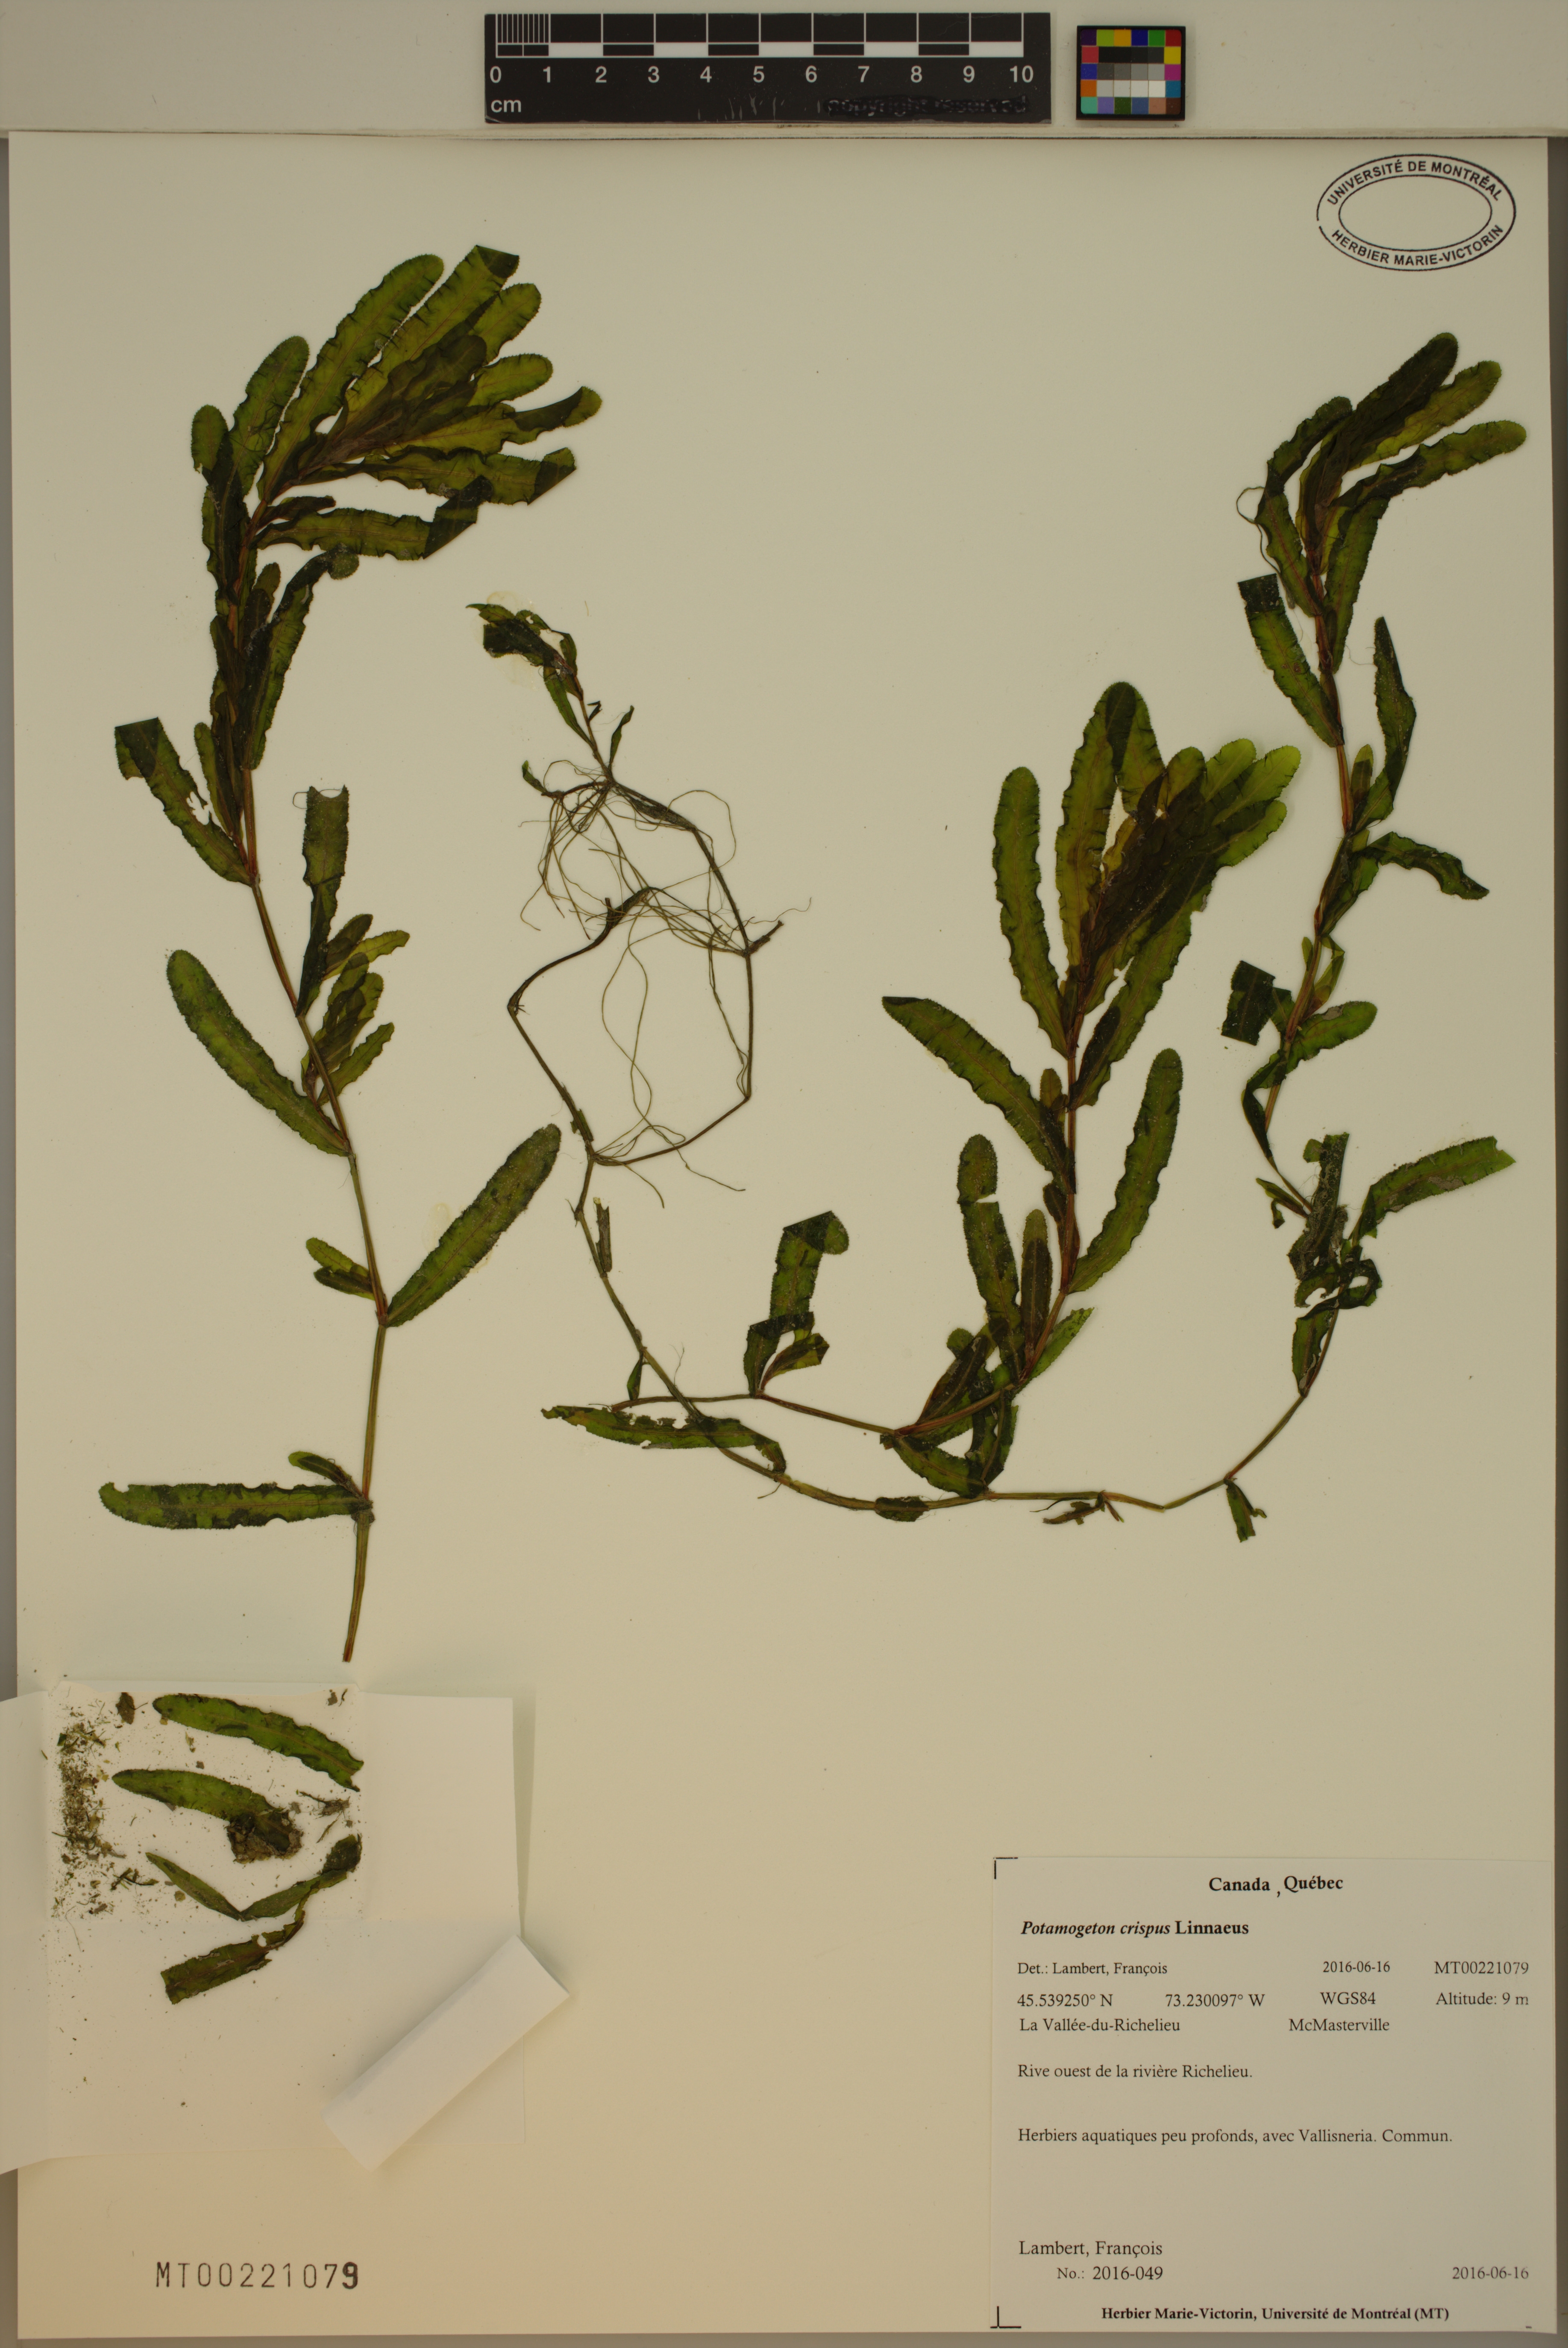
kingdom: Plantae
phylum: Tracheophyta
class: Liliopsida
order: Alismatales
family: Potamogetonaceae
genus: Potamogeton
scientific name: Potamogeton crispus
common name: Curled pondweed
